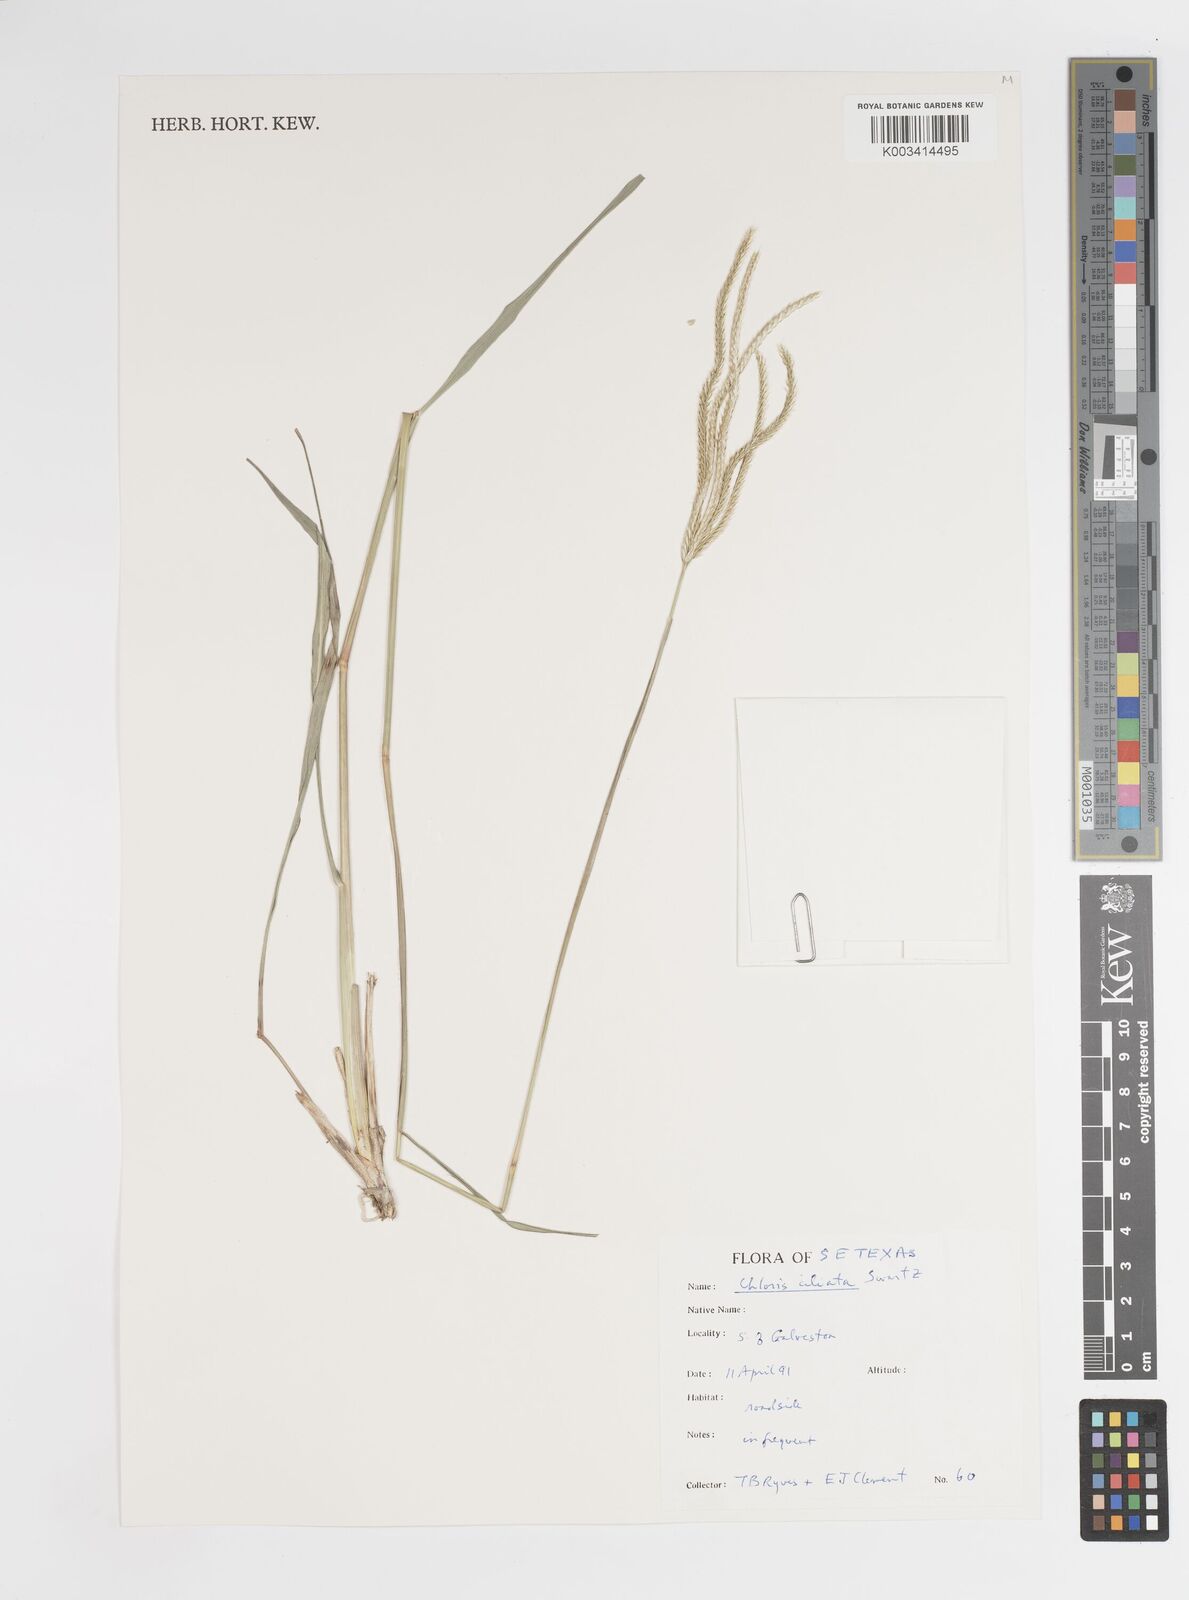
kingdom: Plantae
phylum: Tracheophyta
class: Liliopsida
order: Poales
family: Poaceae
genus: Stapfochloa
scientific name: Stapfochloa ciliata
